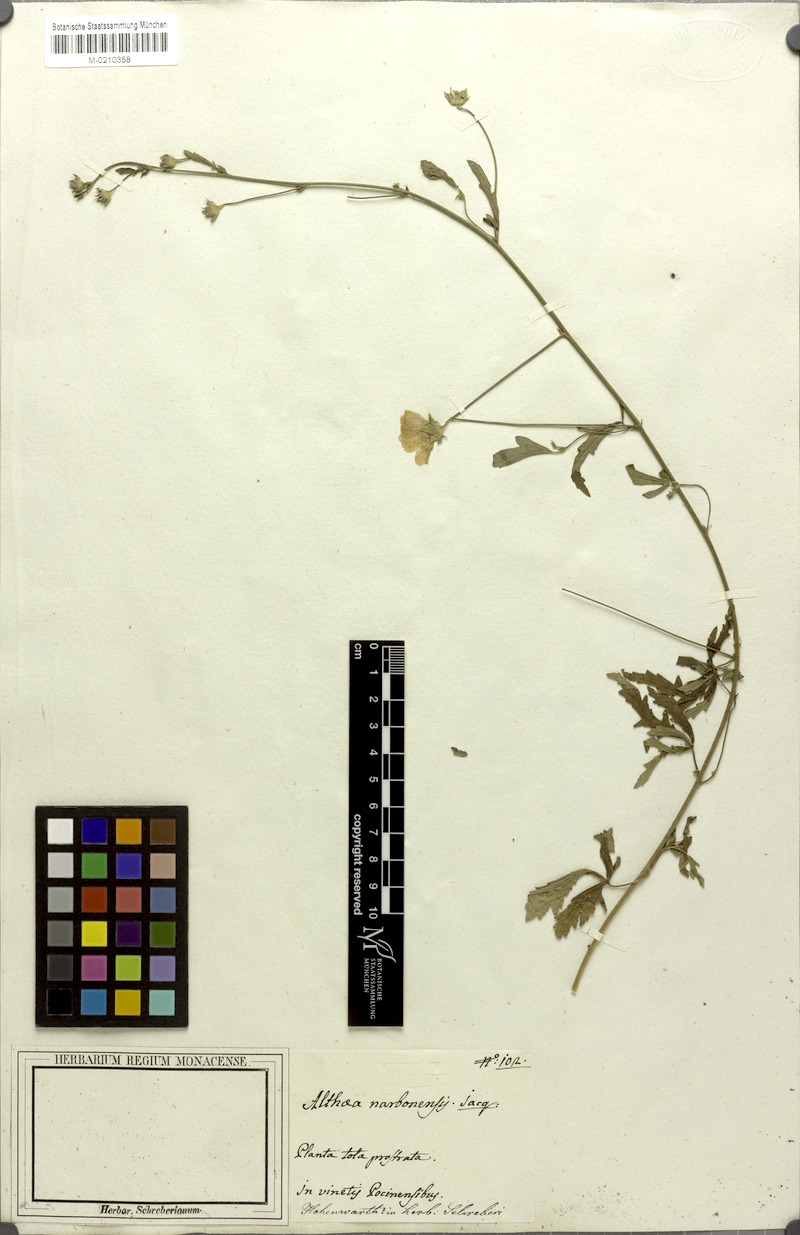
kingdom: Plantae
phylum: Tracheophyta
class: Magnoliopsida
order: Malvales
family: Malvaceae
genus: Althaea
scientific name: Althaea cannabina
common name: Palm-leaf marshmallow
